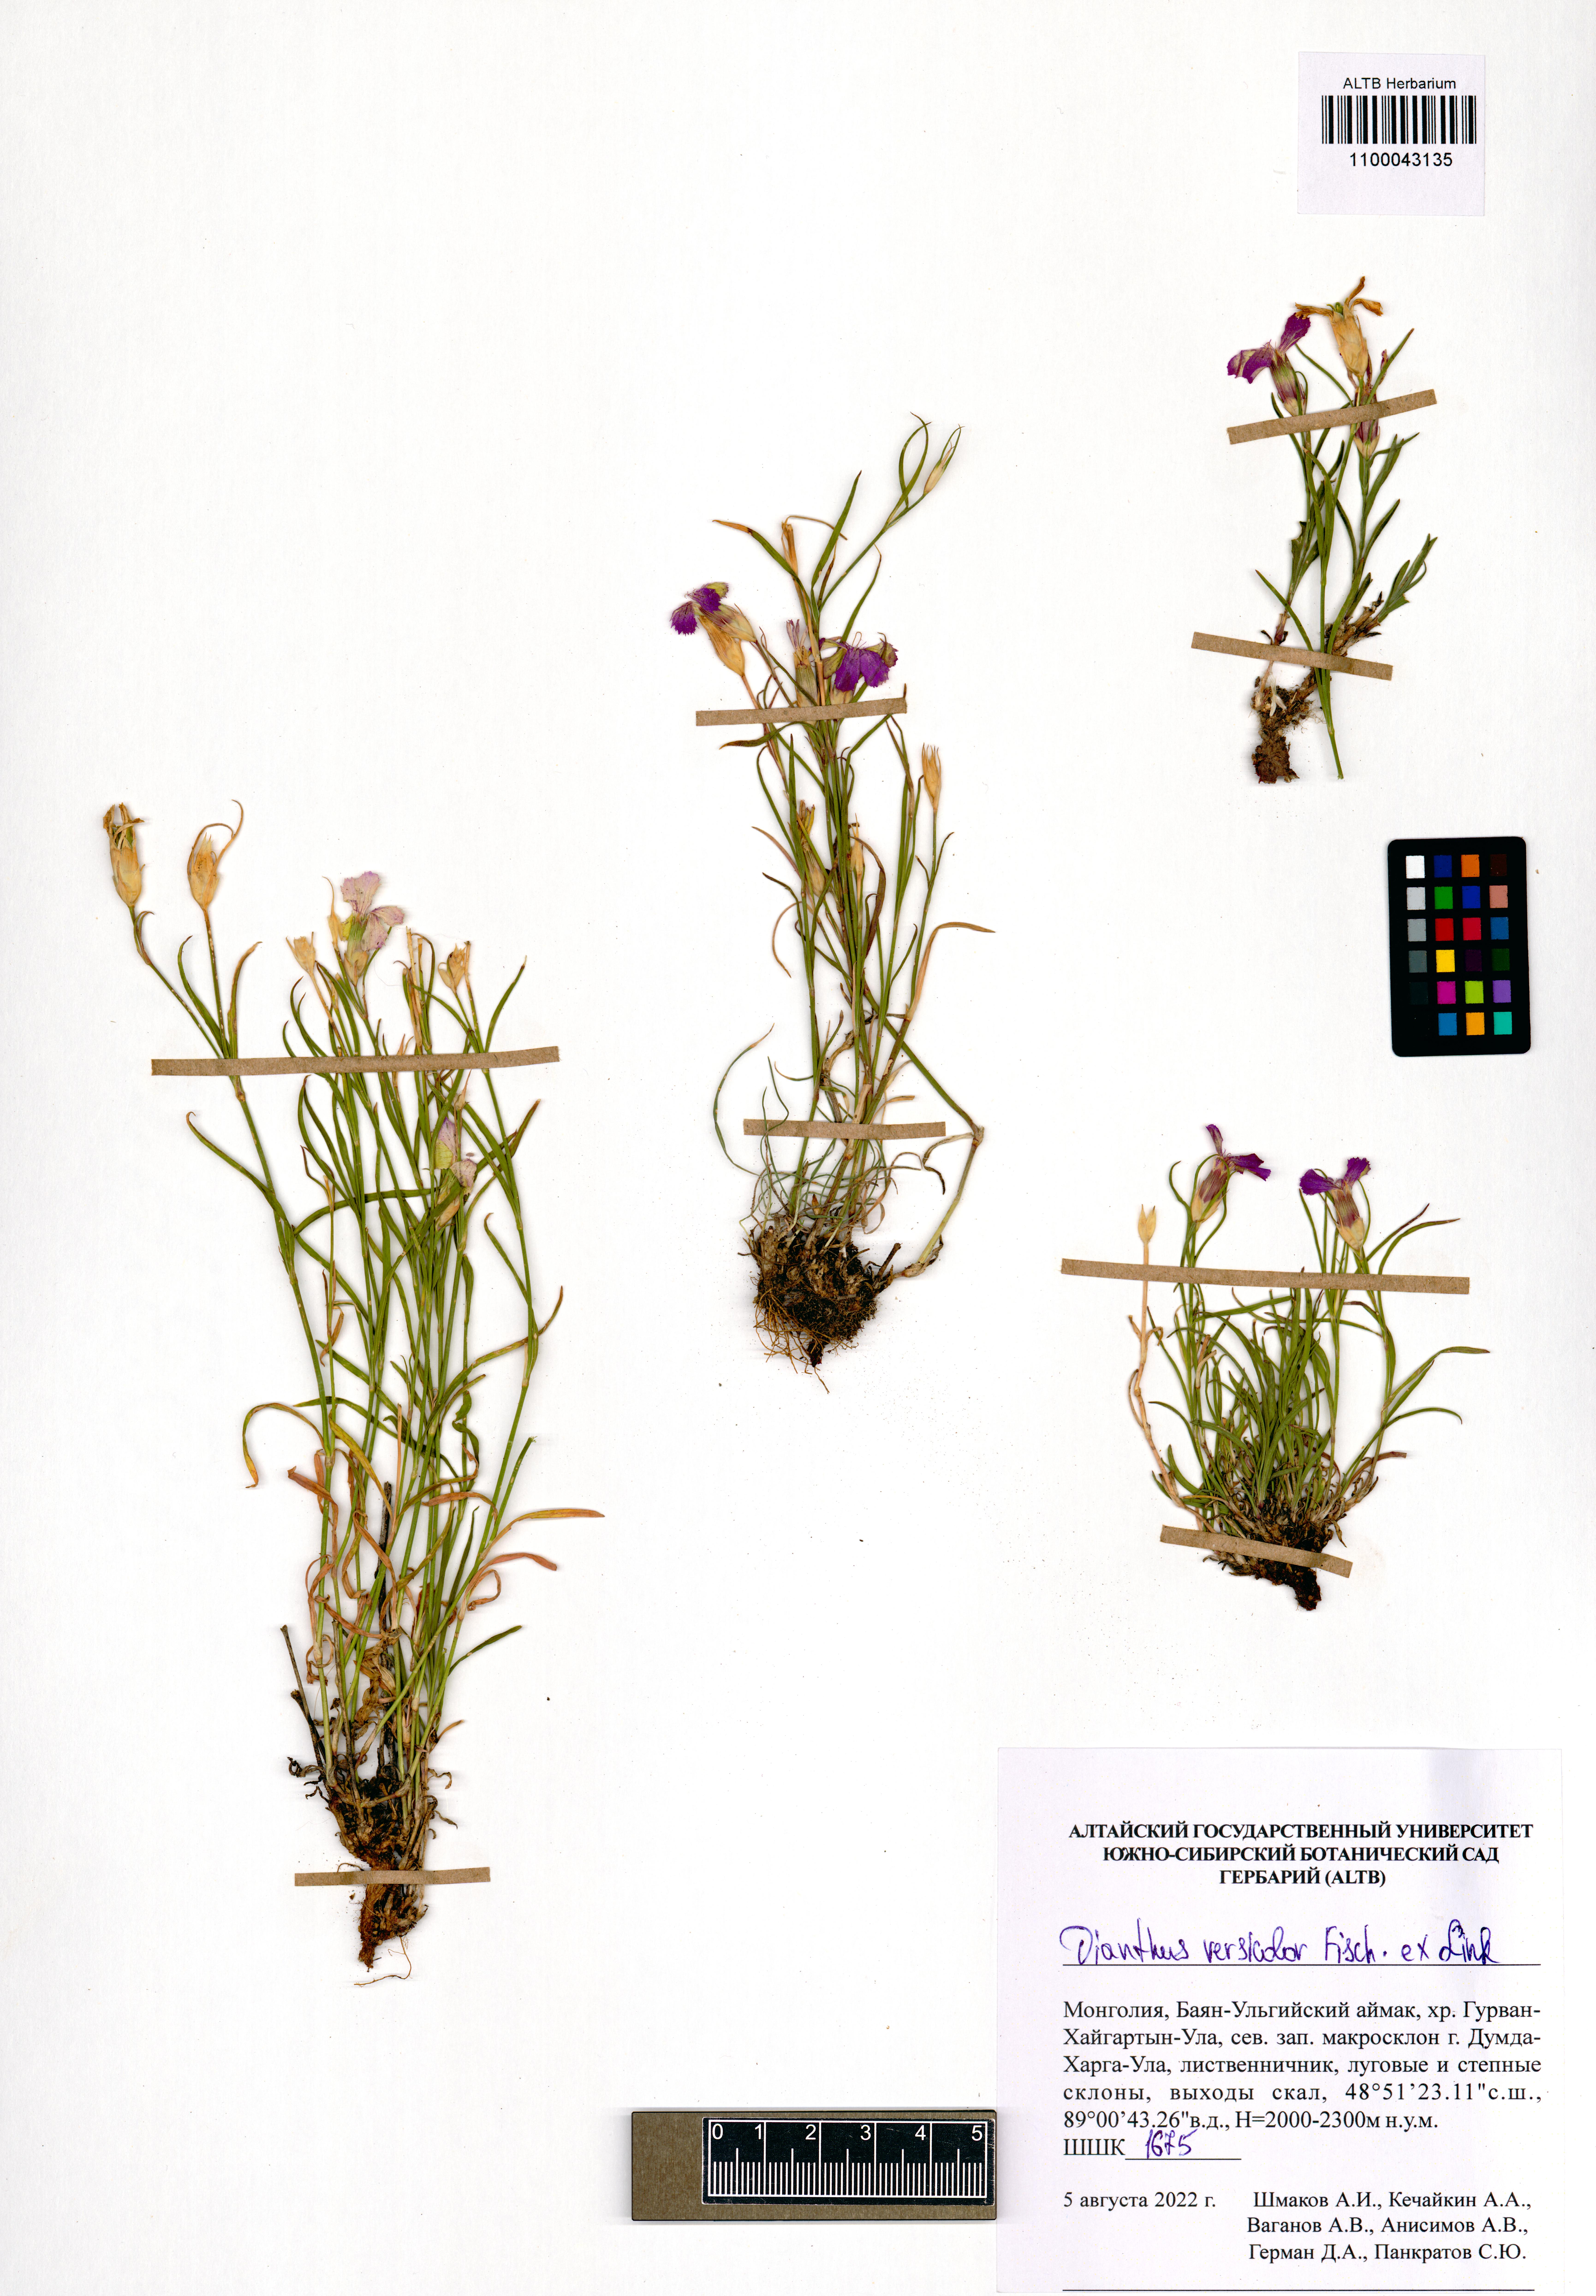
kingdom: Plantae
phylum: Tracheophyta
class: Magnoliopsida
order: Caryophyllales
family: Caryophyllaceae
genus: Dianthus
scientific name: Dianthus chinensis
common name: Rainbow pink
